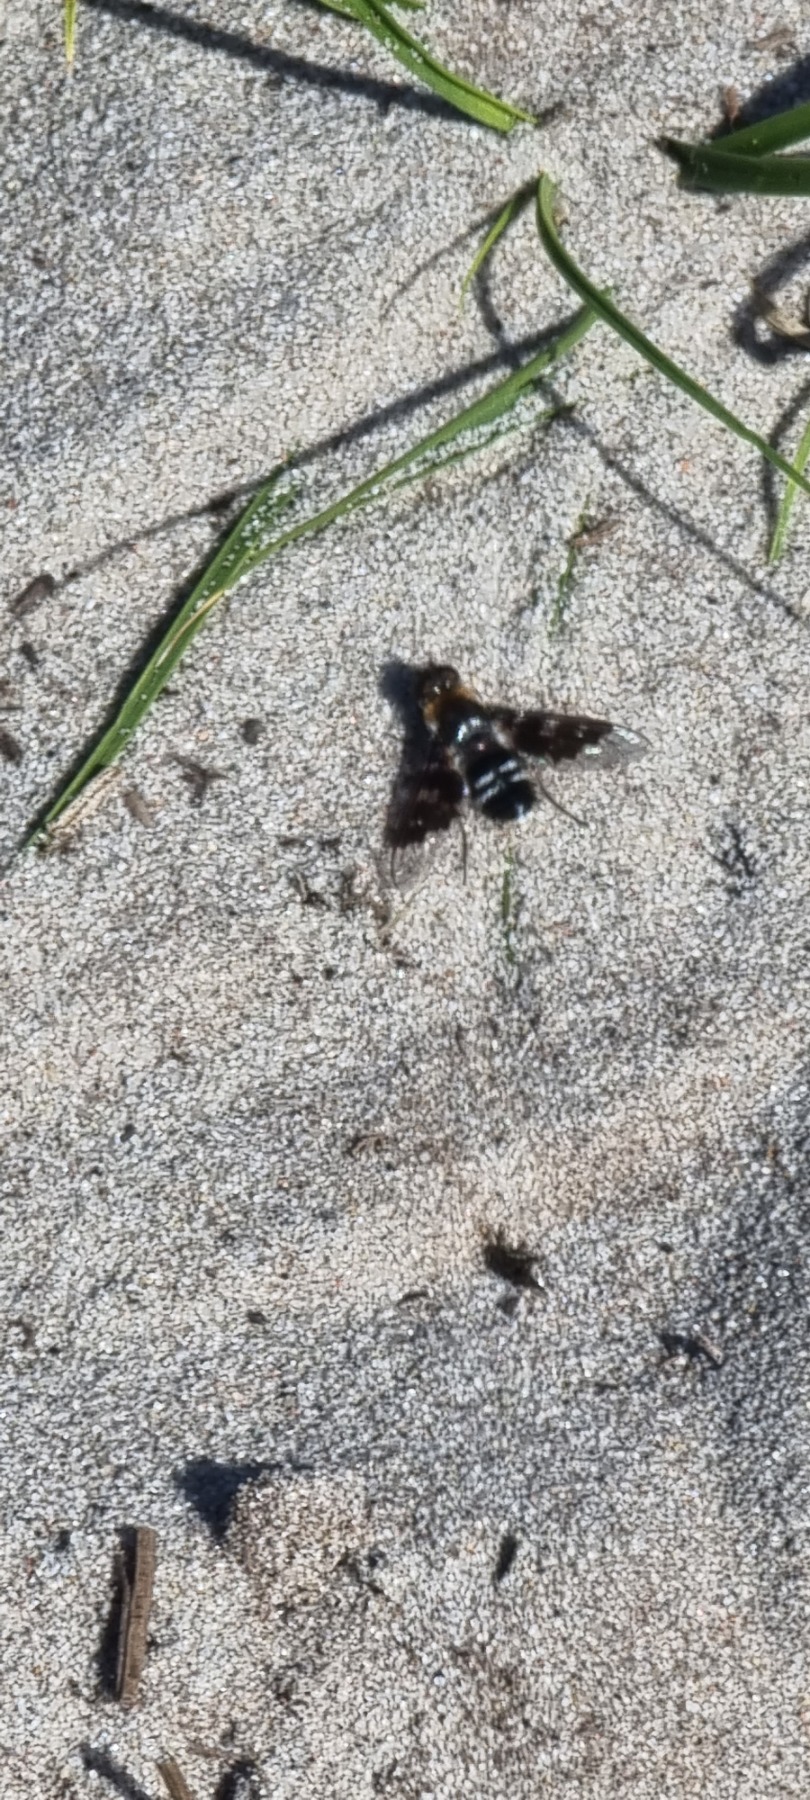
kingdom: Animalia
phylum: Arthropoda
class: Insecta
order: Diptera
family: Bombyliidae
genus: Thyridanthrax
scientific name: Thyridanthrax fenestratus
